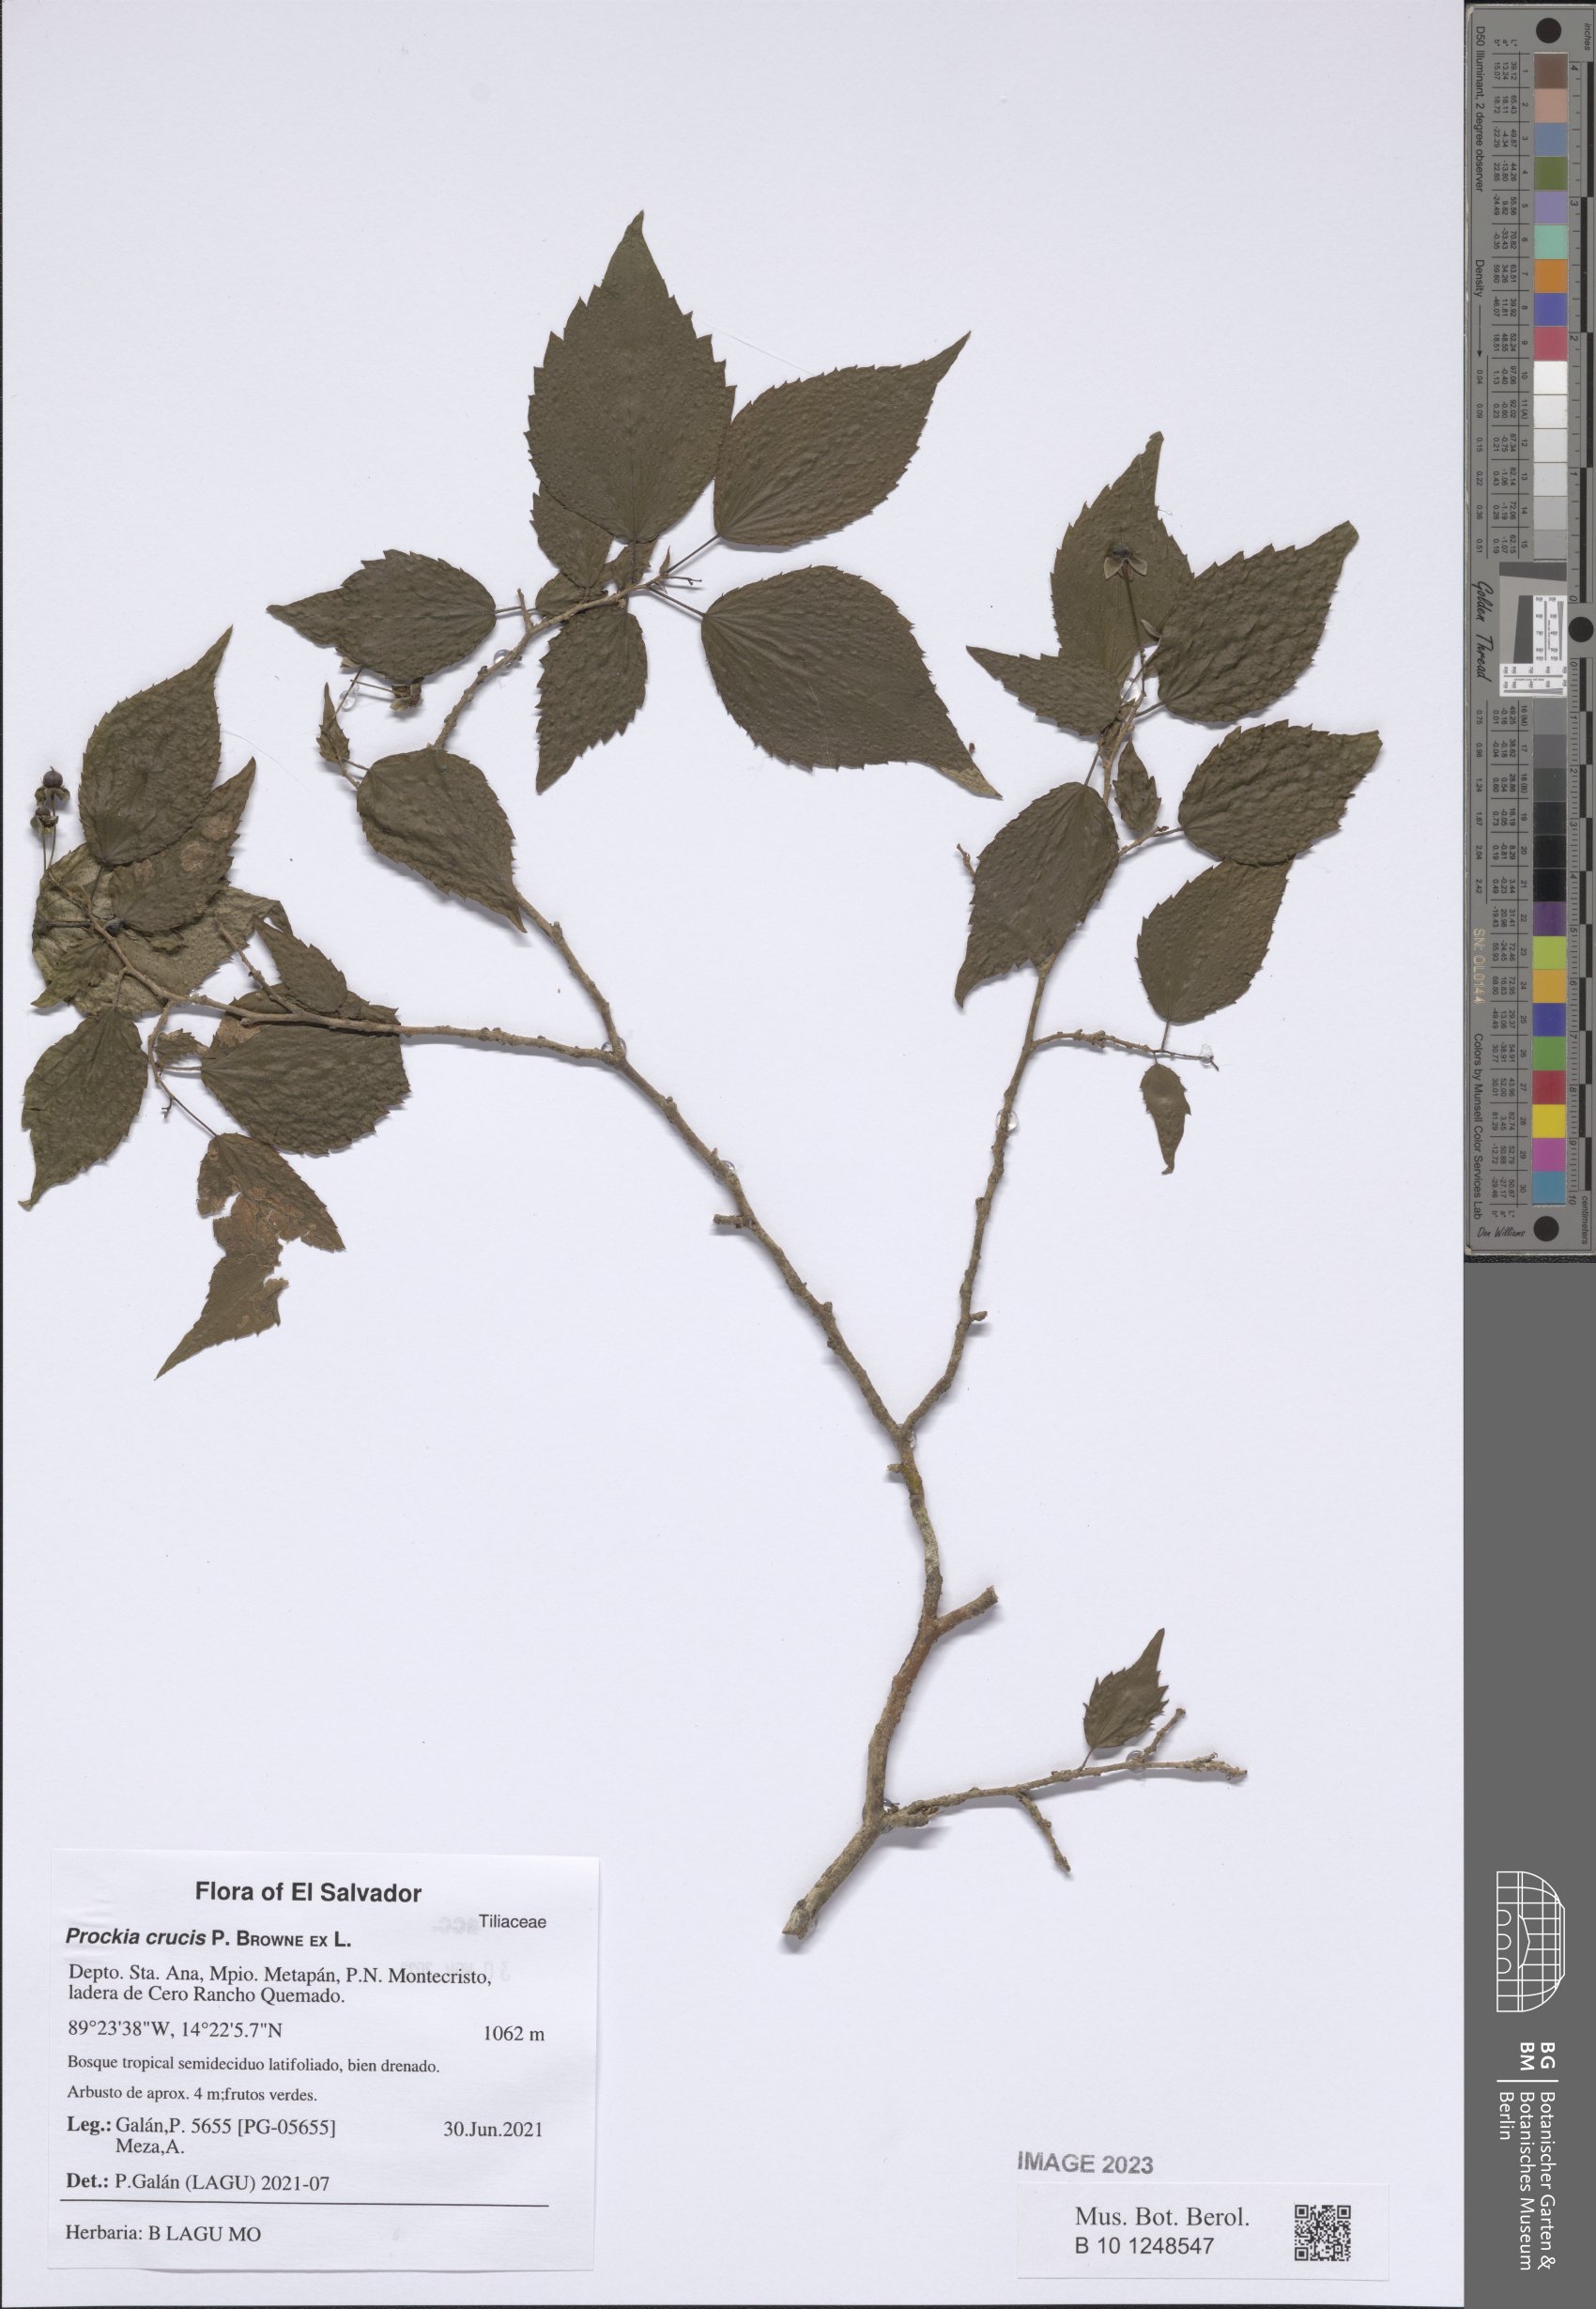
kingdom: Plantae
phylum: Tracheophyta
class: Magnoliopsida
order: Malpighiales
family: Salicaceae
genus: Prockia
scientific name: Prockia crucis
